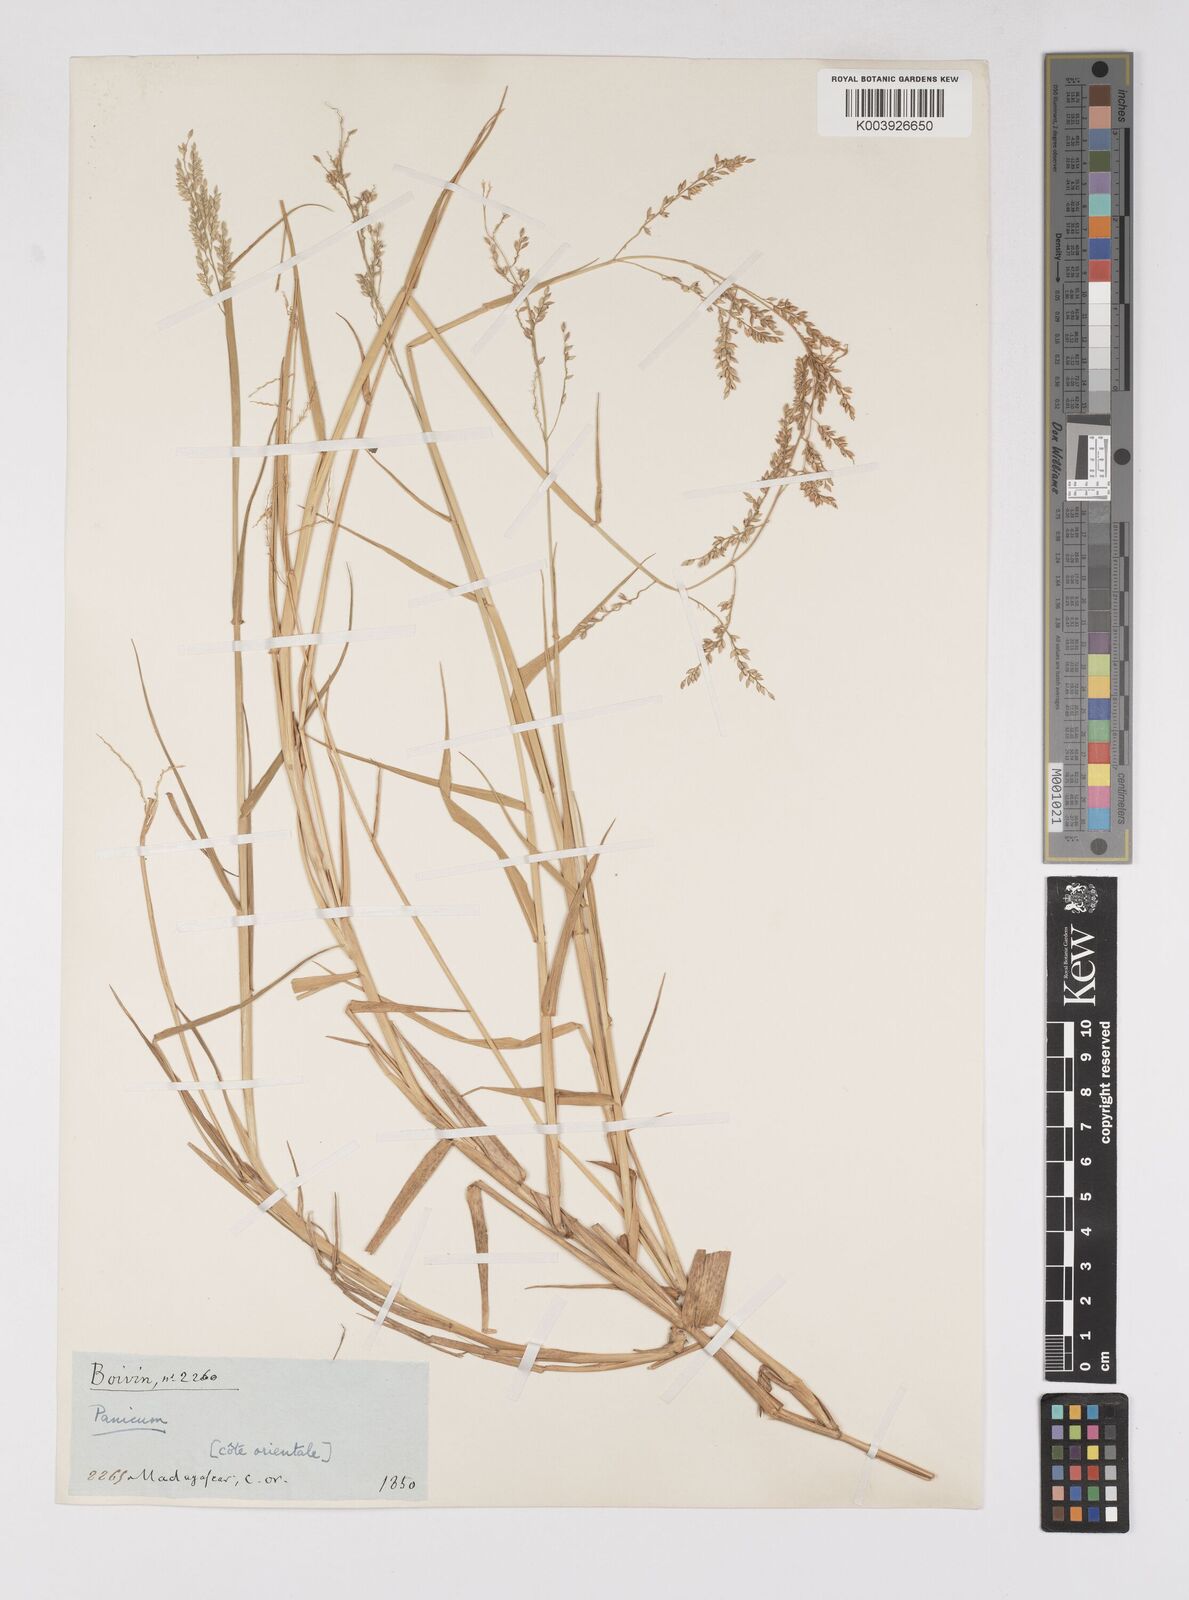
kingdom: Plantae
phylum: Tracheophyta
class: Liliopsida
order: Poales
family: Poaceae
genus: Eriochloa
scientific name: Eriochloa meyeriana
